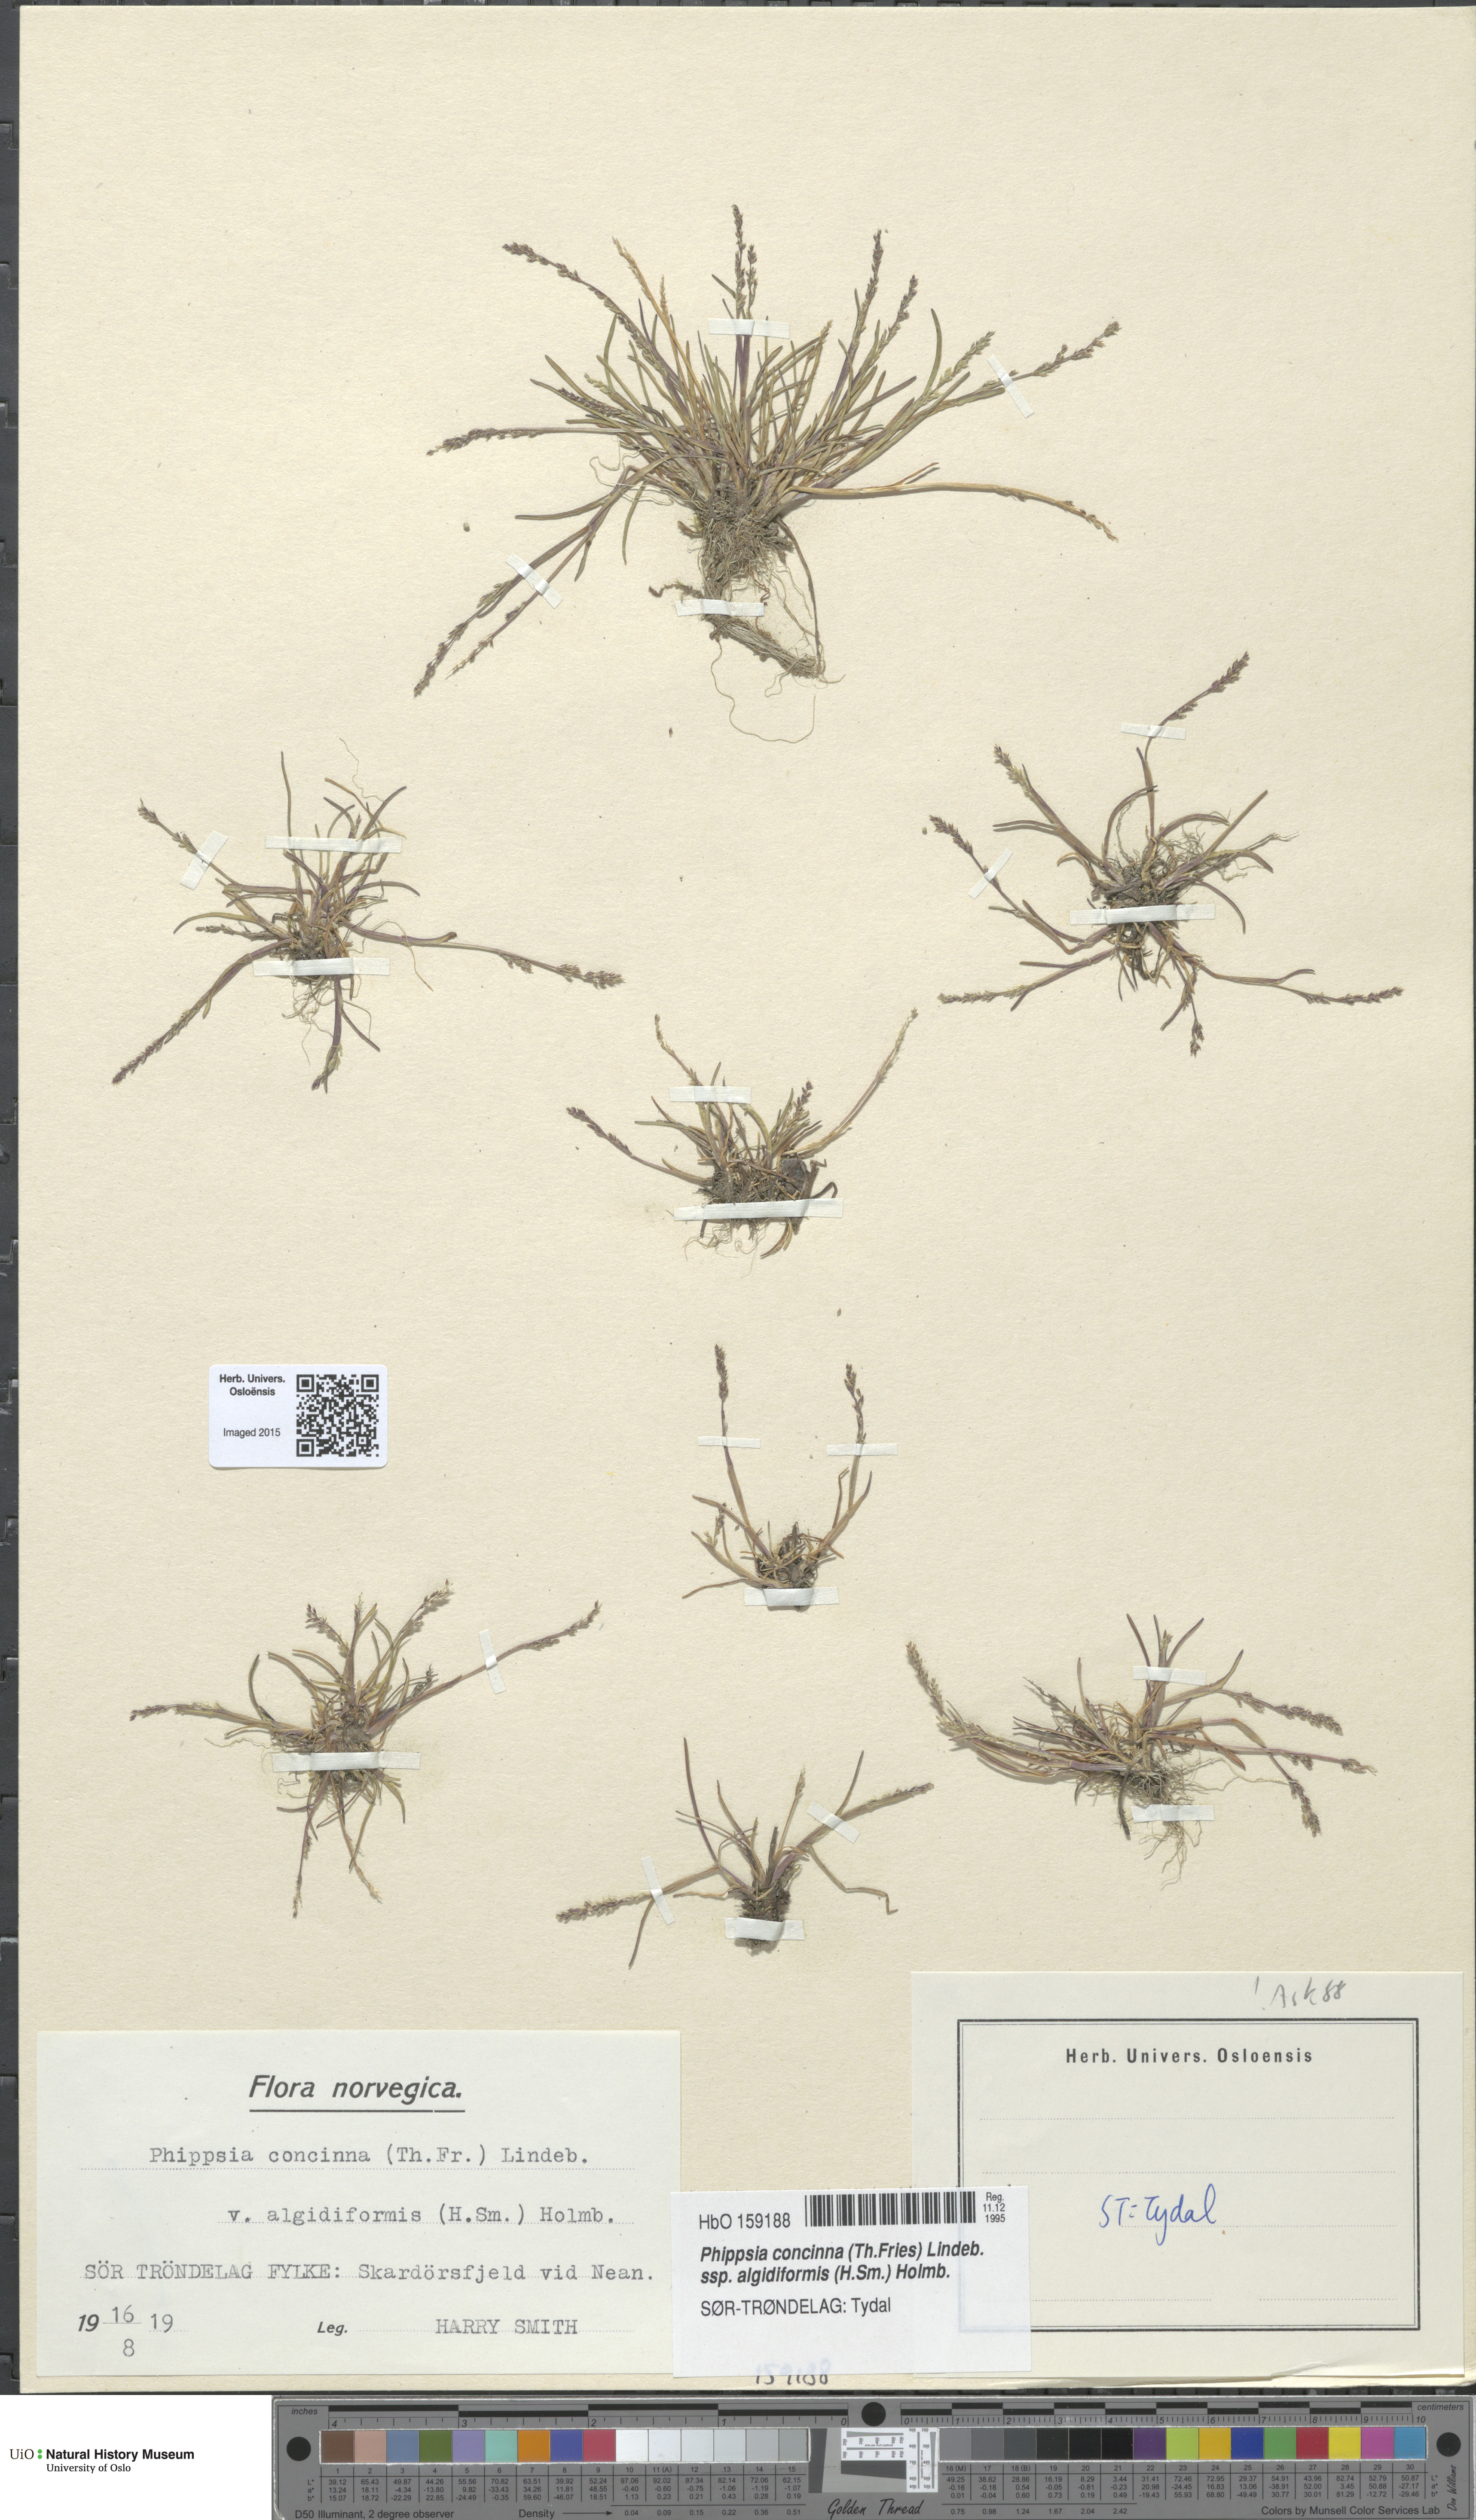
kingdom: Plantae
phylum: Tracheophyta
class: Liliopsida
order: Poales
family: Poaceae
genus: Phippsia
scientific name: Phippsia concinna
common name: Snowgrass
